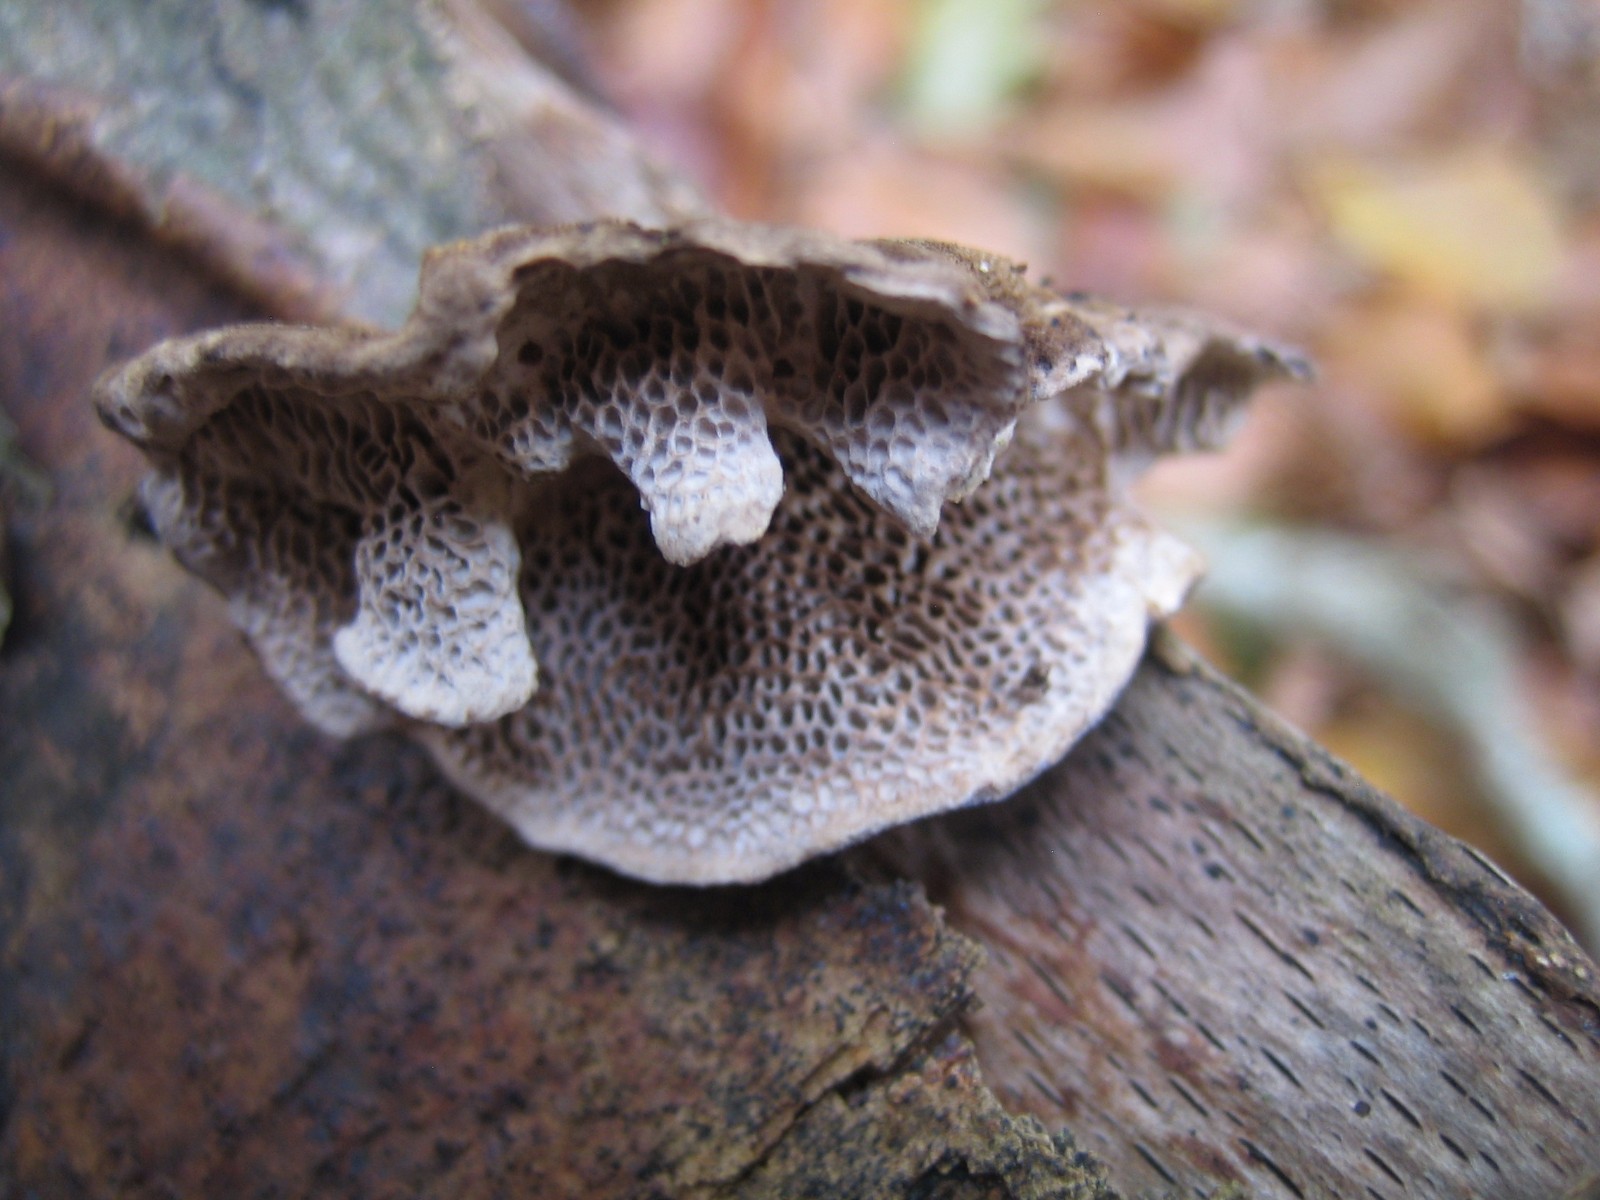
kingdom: Fungi
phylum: Basidiomycota
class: Agaricomycetes
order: Polyporales
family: Polyporaceae
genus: Trametes
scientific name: Trametes versicolor
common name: broget læderporesvamp
